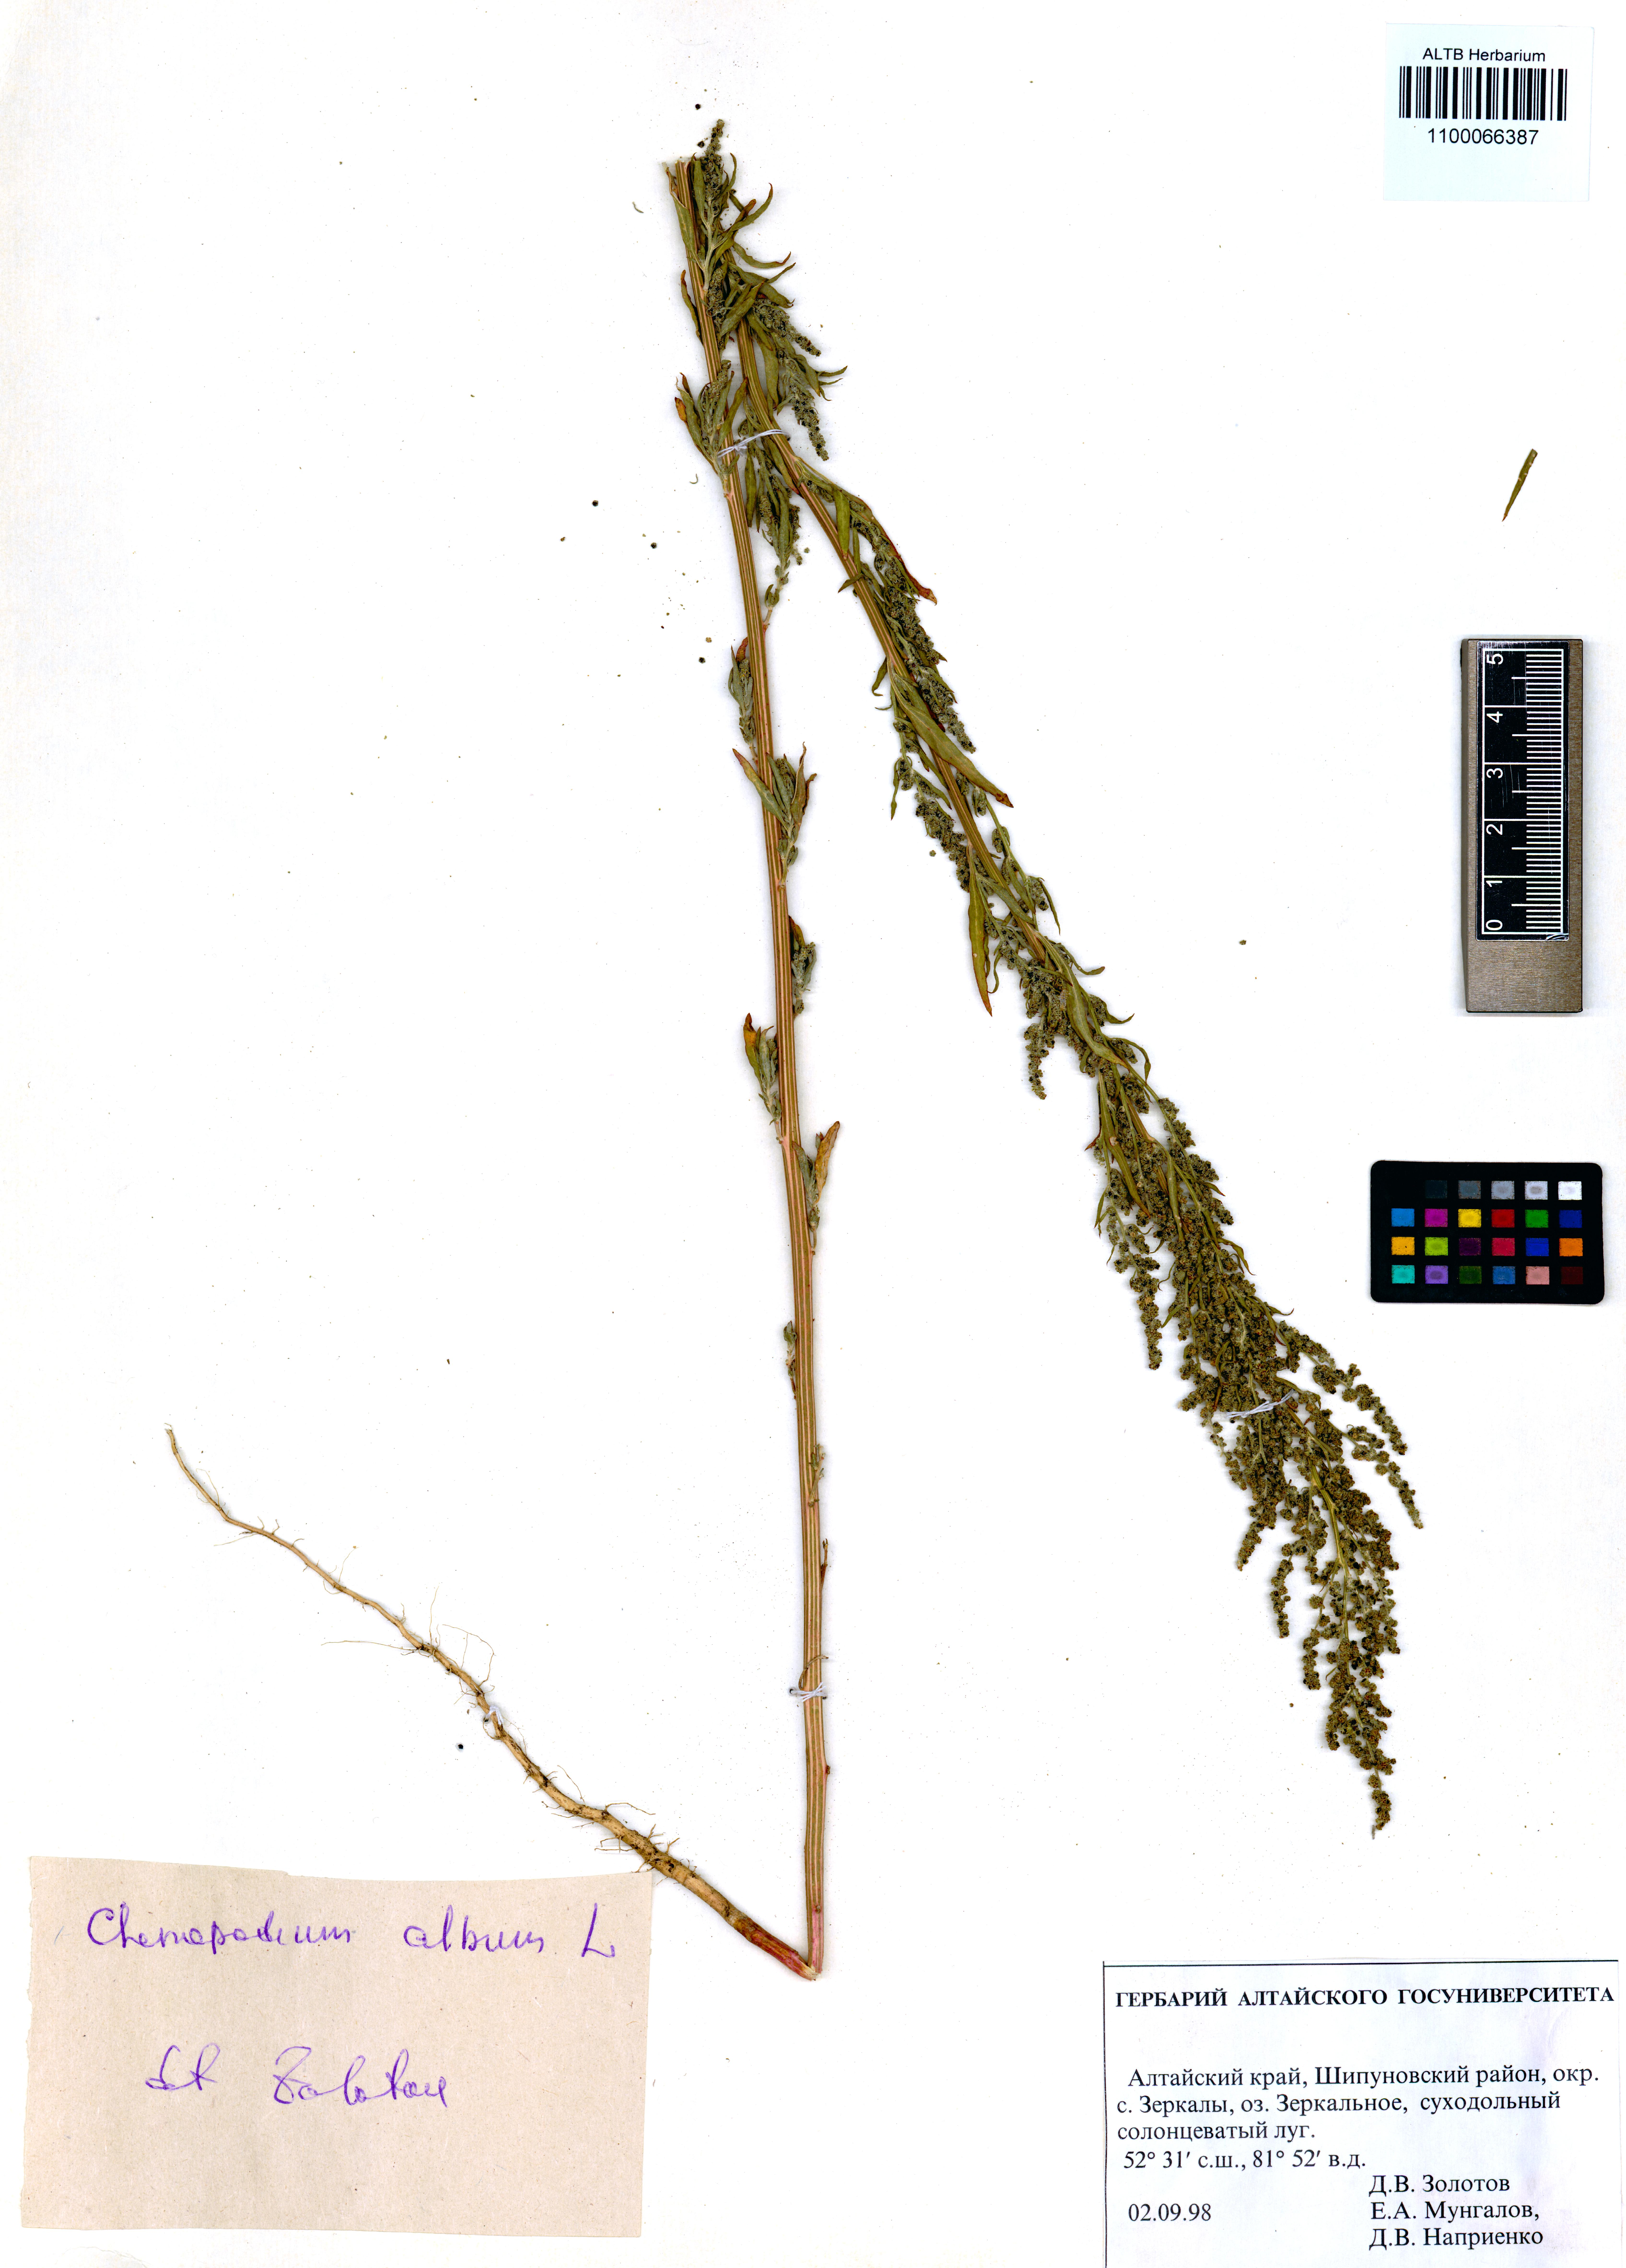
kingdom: Plantae
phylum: Tracheophyta
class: Magnoliopsida
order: Caryophyllales
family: Amaranthaceae
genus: Chenopodium
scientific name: Chenopodium album
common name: Fat-hen
